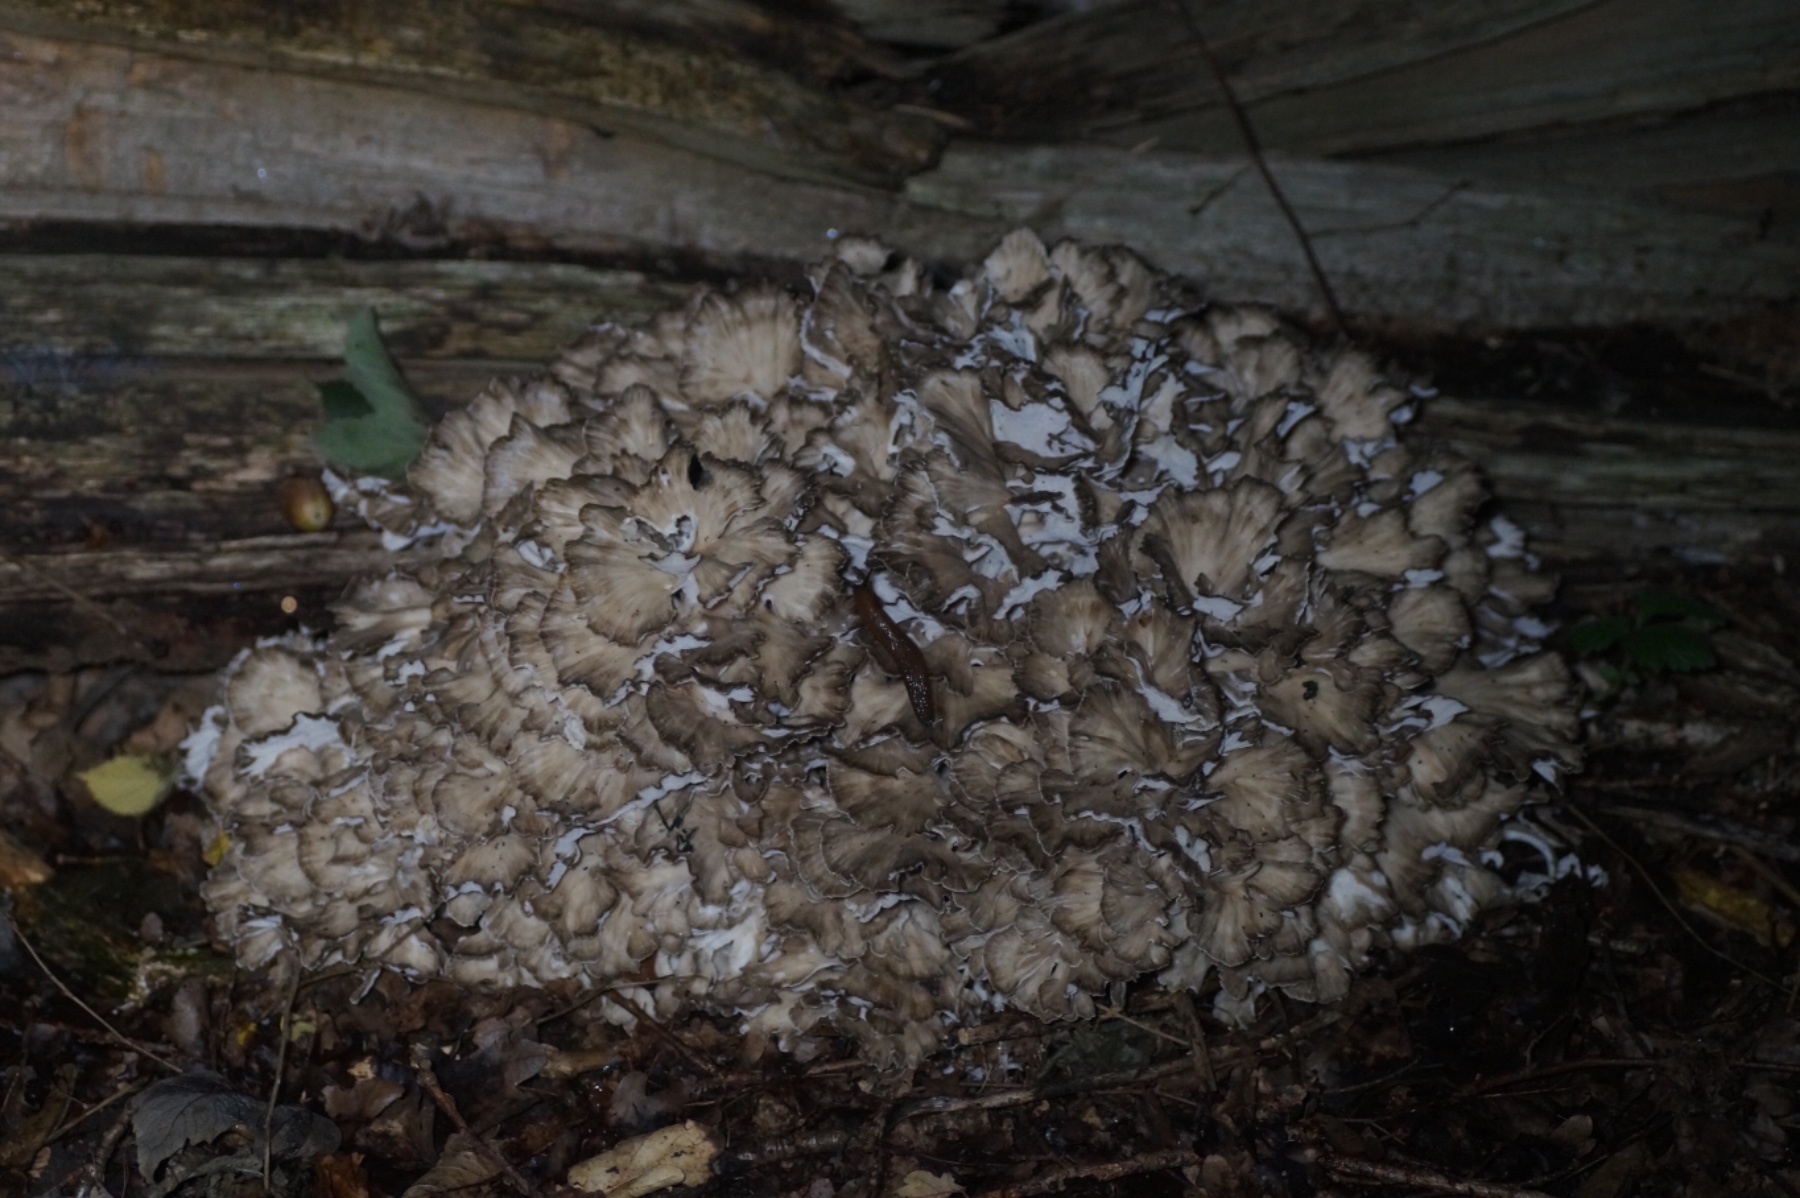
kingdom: Fungi
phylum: Basidiomycota
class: Agaricomycetes
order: Polyporales
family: Grifolaceae
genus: Grifola
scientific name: Grifola frondosa
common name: tueporesvamp
